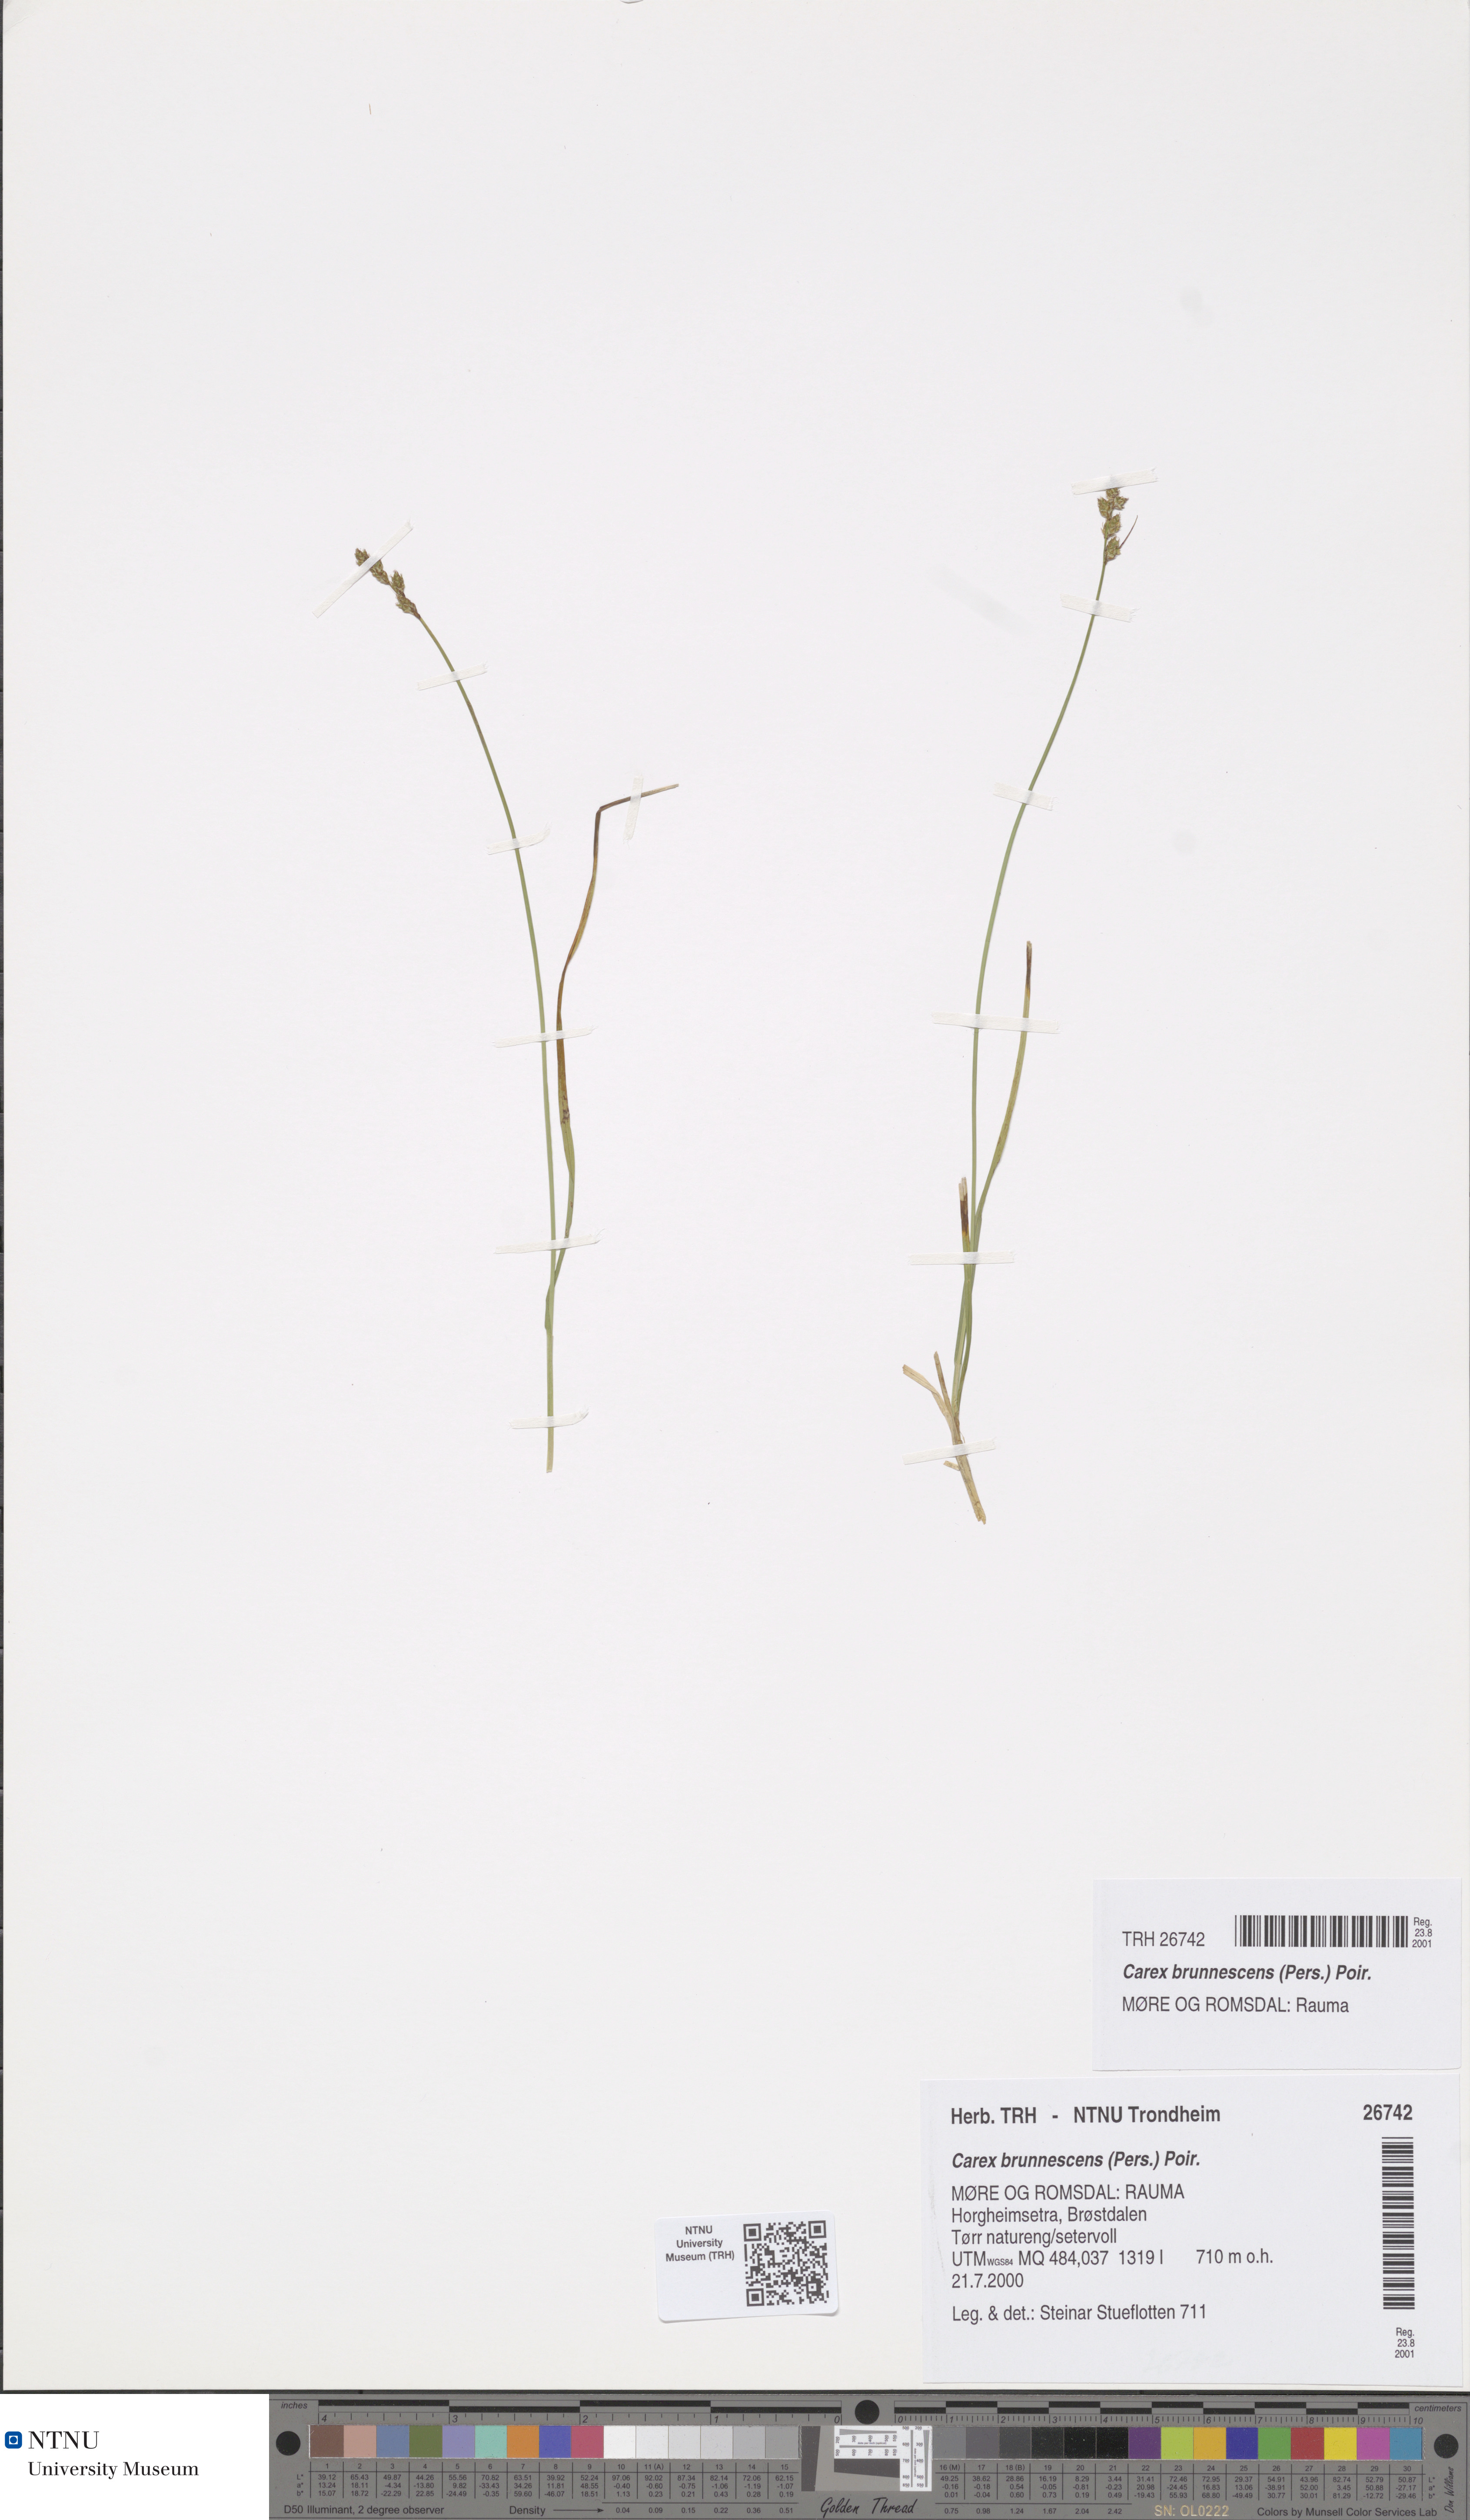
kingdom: Plantae
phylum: Tracheophyta
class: Liliopsida
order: Poales
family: Cyperaceae
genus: Carex
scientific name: Carex brunnescens
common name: Brown sedge
